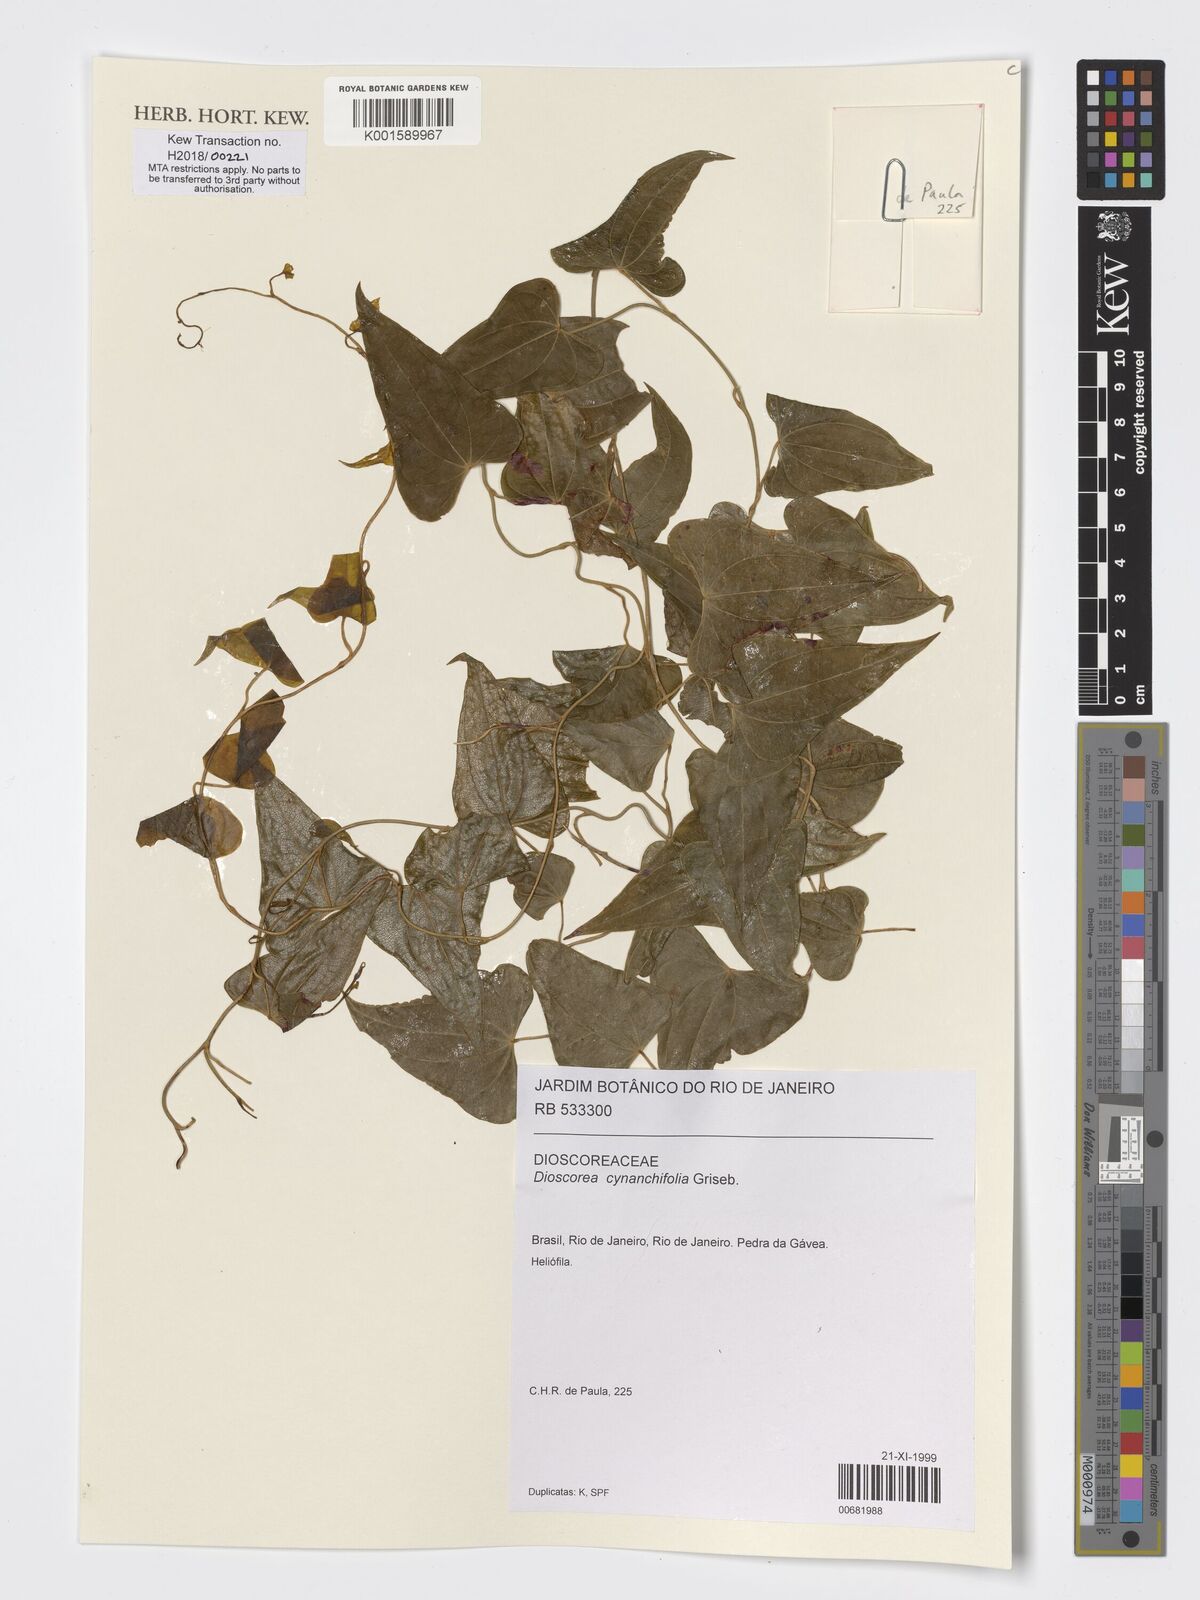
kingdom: Plantae
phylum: Tracheophyta
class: Liliopsida
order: Dioscoreales
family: Dioscoreaceae
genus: Dioscorea
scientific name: Dioscorea marginata
